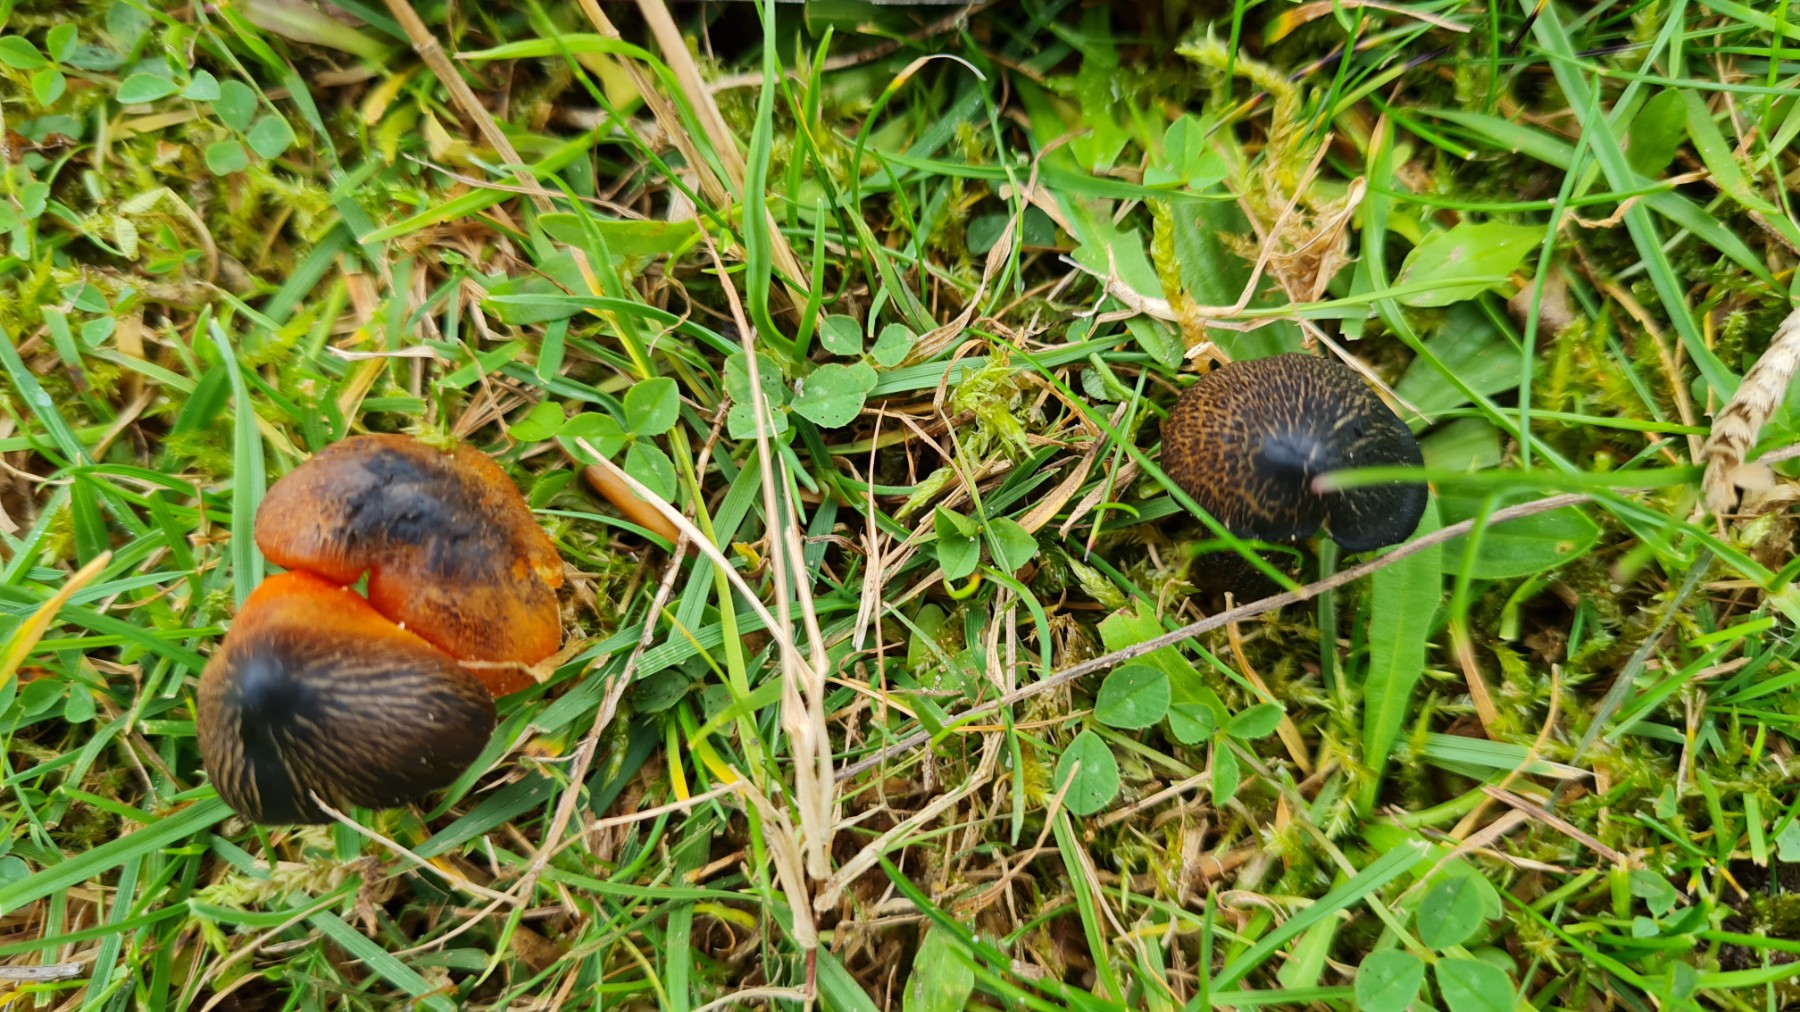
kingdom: Fungi
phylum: Basidiomycota
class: Agaricomycetes
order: Agaricales
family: Hygrophoraceae
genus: Hygrocybe
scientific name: Hygrocybe conica
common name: kegle-vokshat
